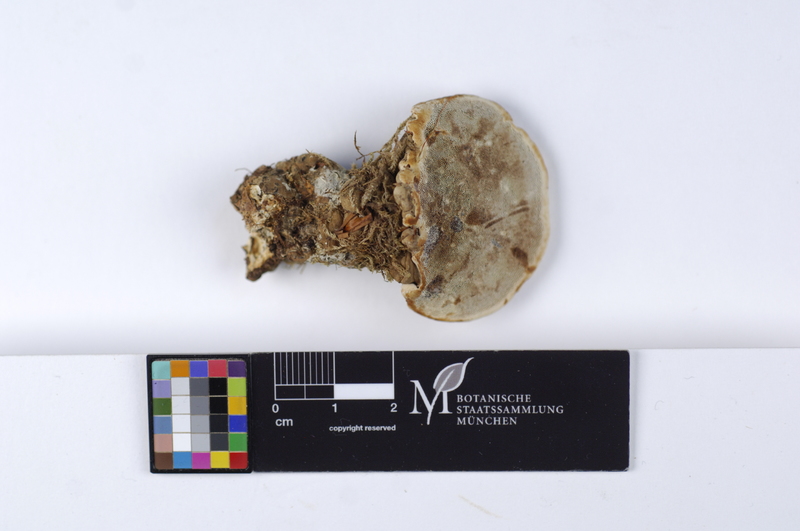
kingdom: Fungi
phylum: Basidiomycota
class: Agaricomycetes
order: Russulales
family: Russulaceae
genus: Boidinia
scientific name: Boidinia furfuracea
